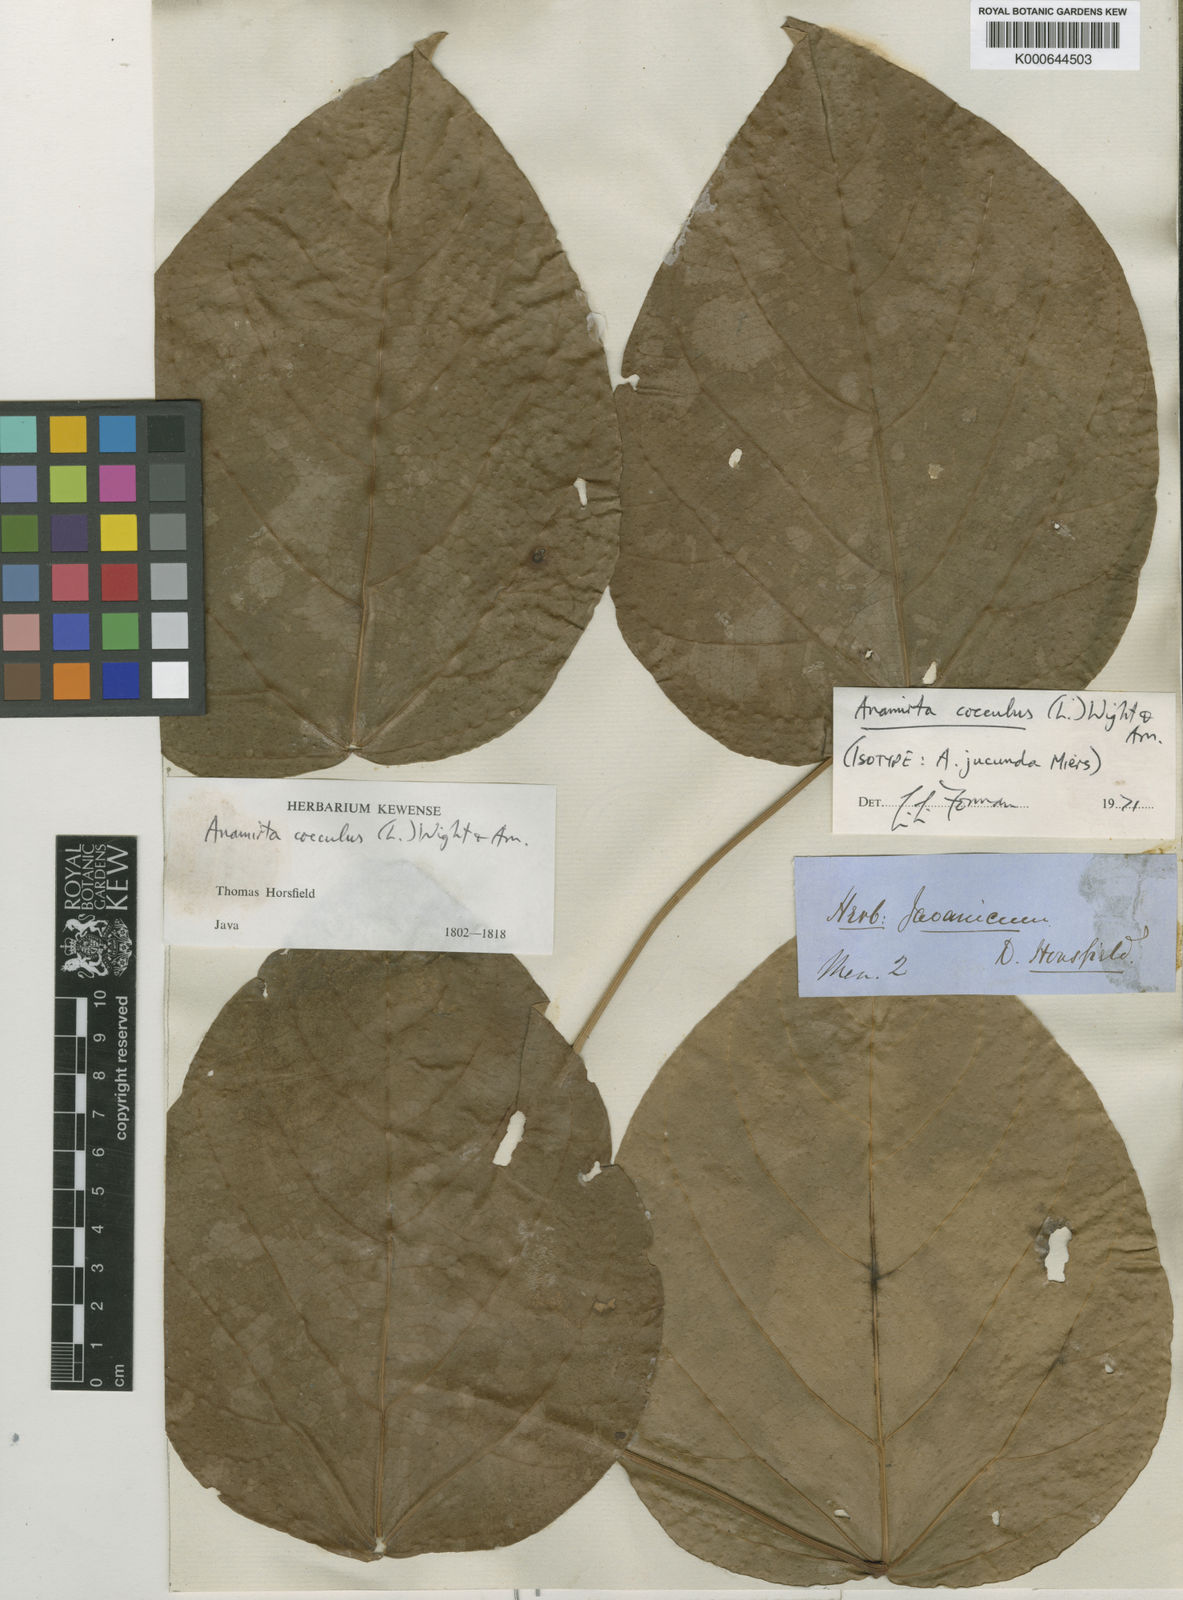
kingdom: Plantae
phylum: Tracheophyta
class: Magnoliopsida
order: Ranunculales
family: Menispermaceae
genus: Anamirta
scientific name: Anamirta cocculus
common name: Levantnut
